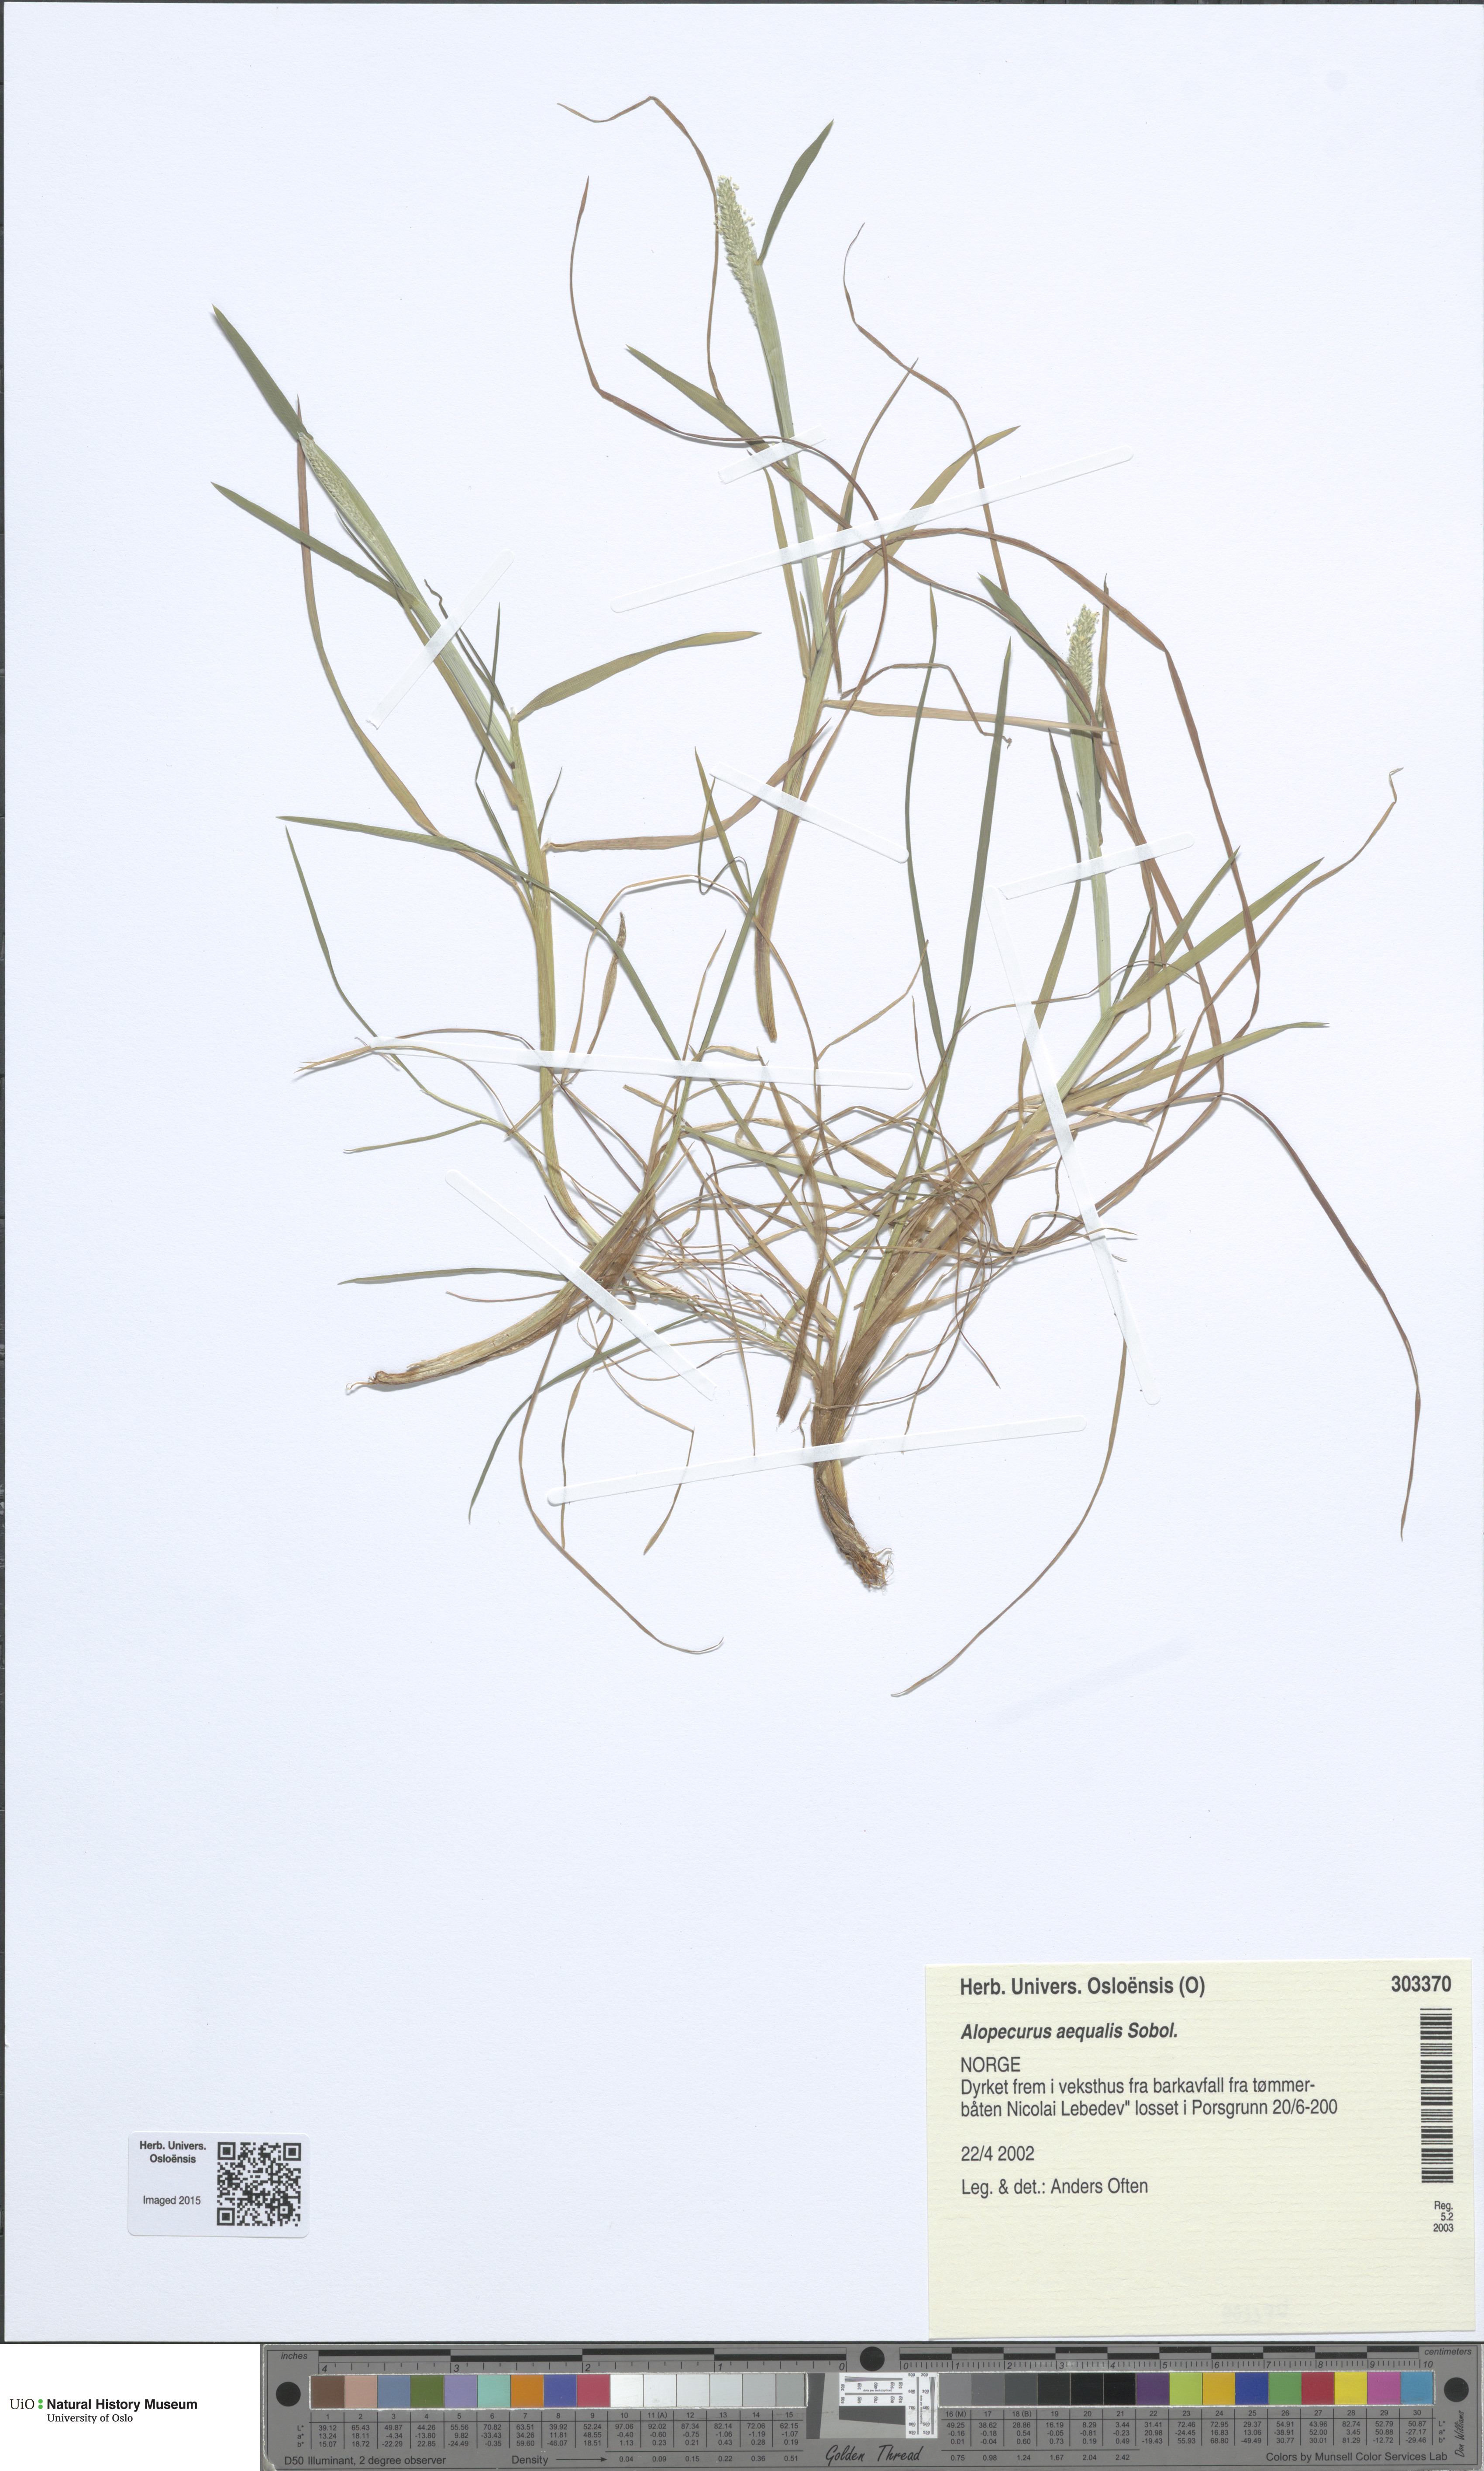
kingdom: Plantae
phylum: Tracheophyta
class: Liliopsida
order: Poales
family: Poaceae
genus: Alopecurus
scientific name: Alopecurus aequalis
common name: Orange foxtail
